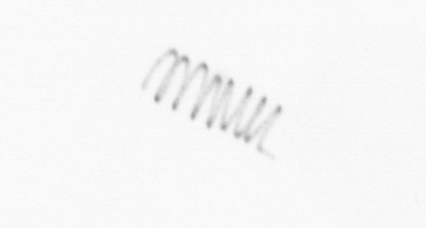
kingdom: Chromista
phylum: Ochrophyta
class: Bacillariophyceae
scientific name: Bacillariophyceae
